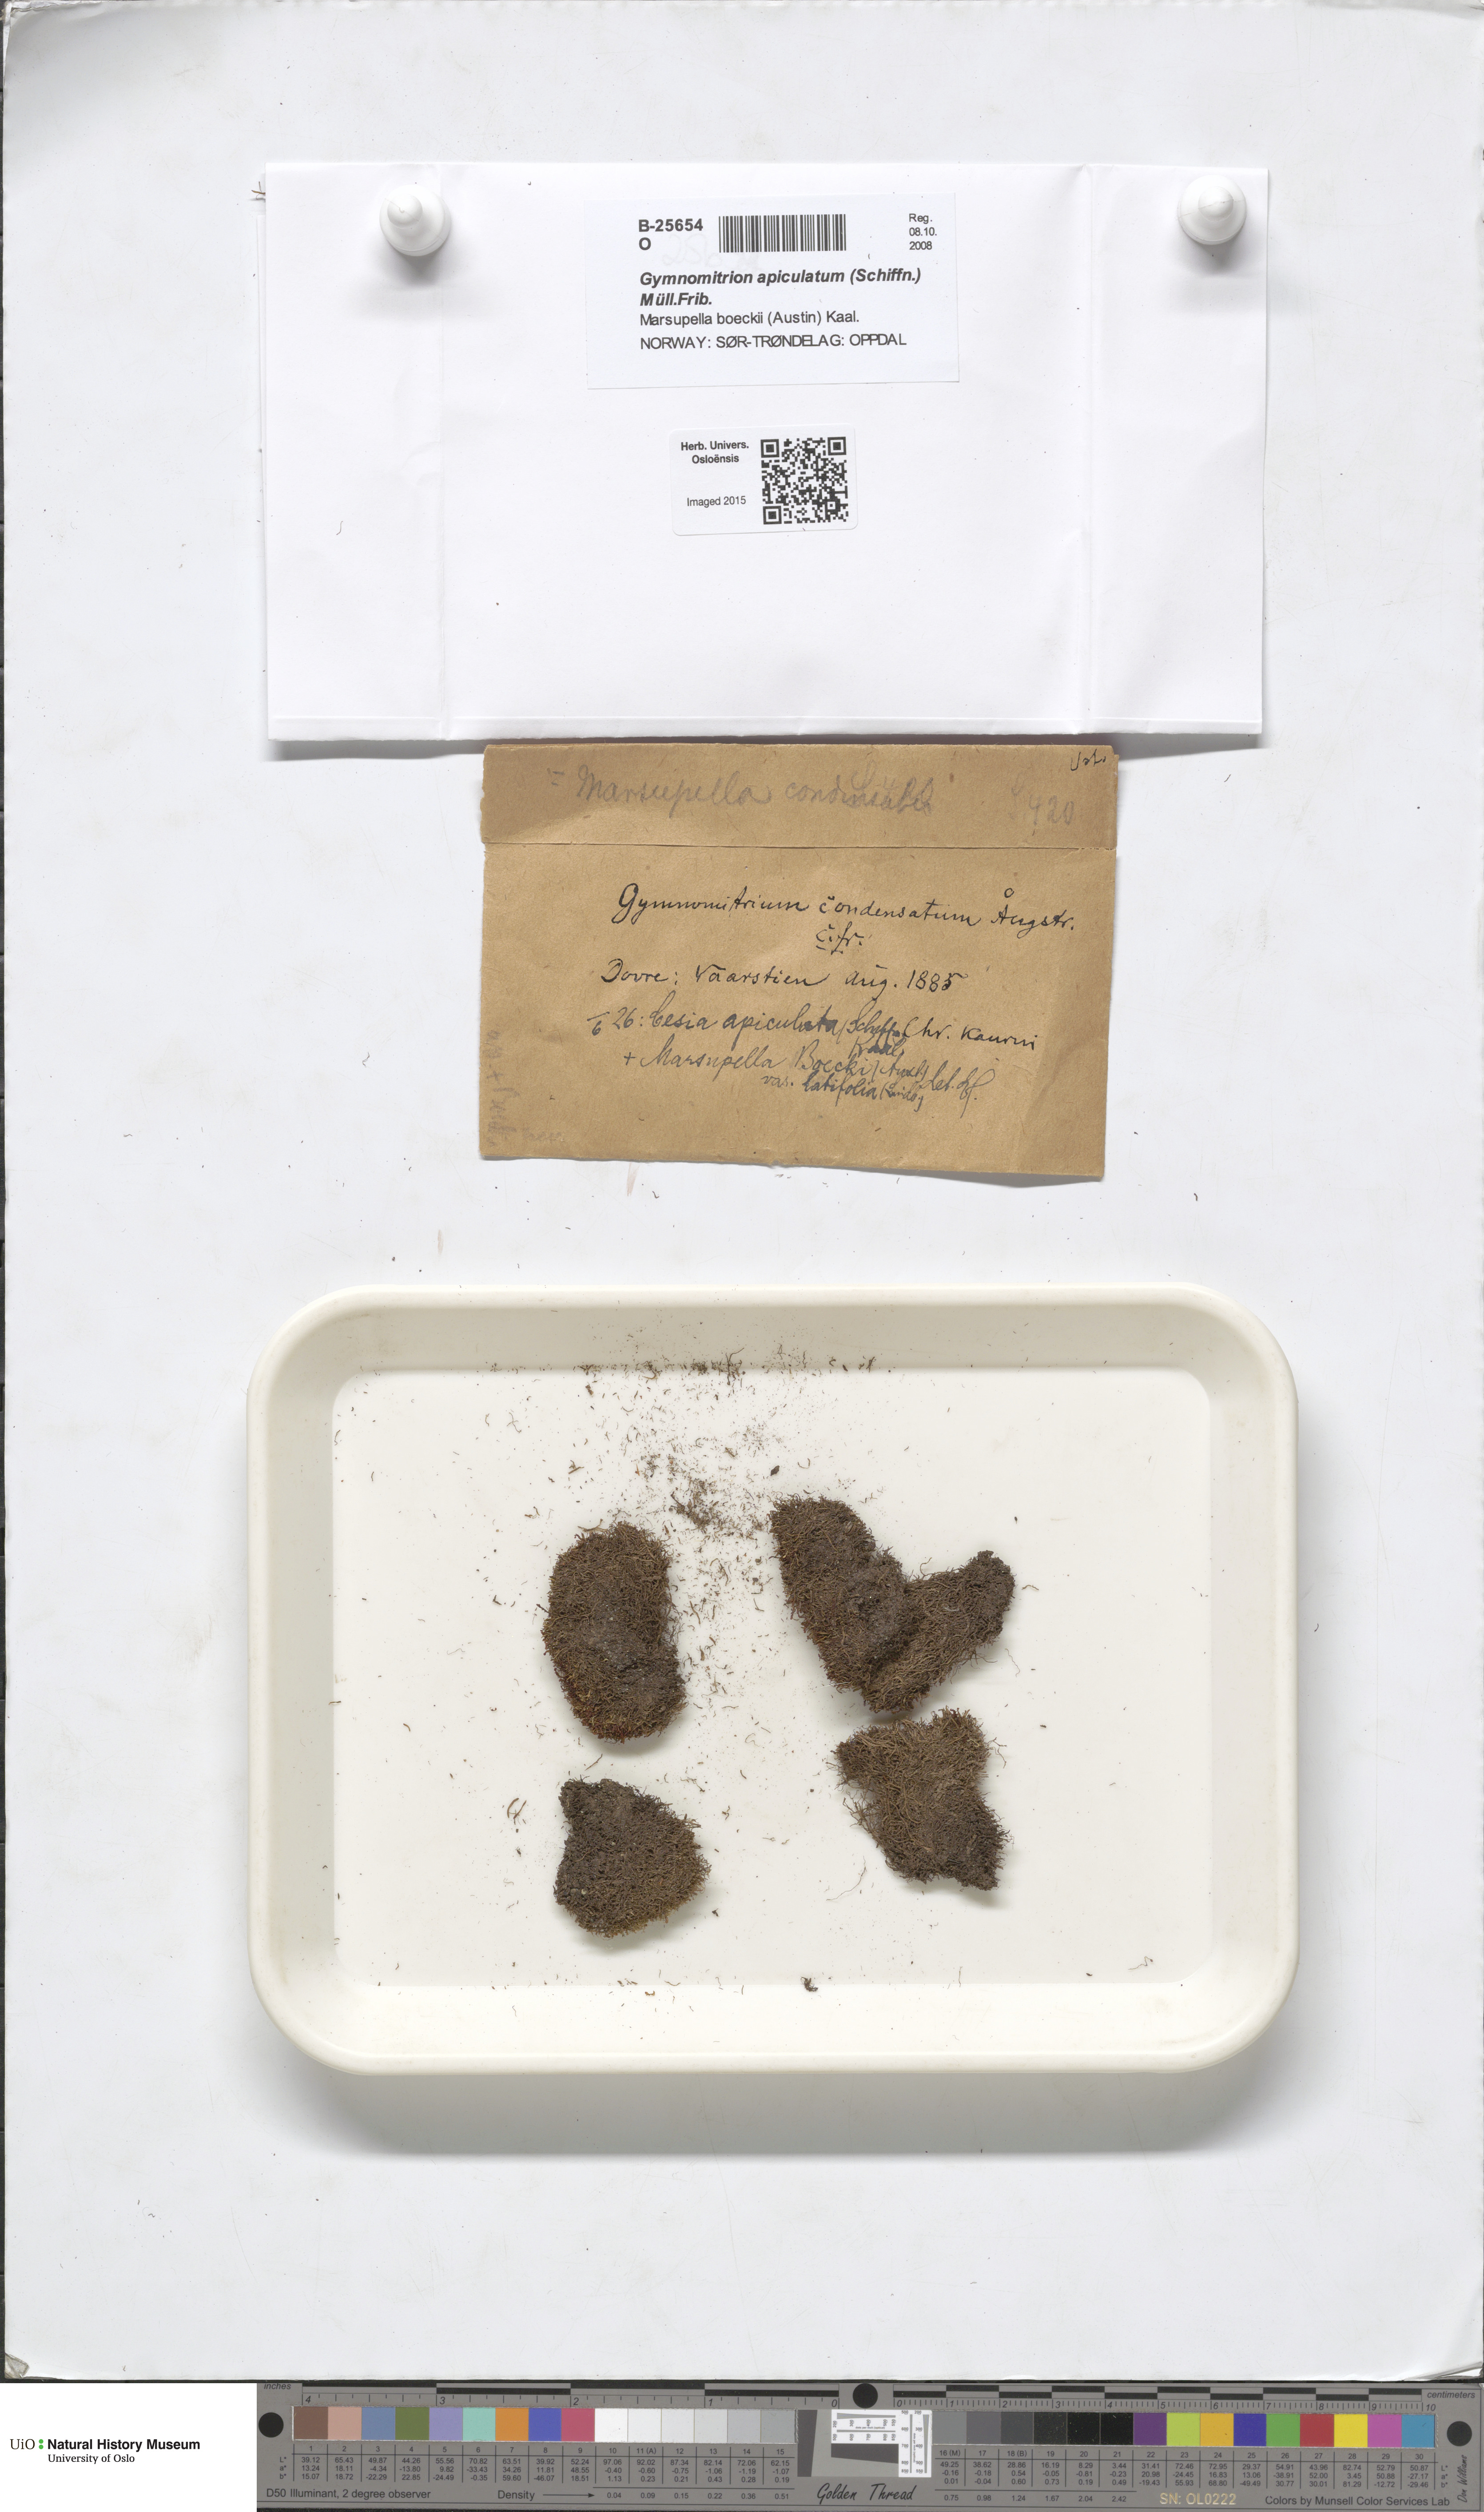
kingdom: Plantae
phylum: Marchantiophyta
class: Jungermanniopsida
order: Jungermanniales
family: Gymnomitriaceae
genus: Marsupella
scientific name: Marsupella apiculata
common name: Pointed frostwort
